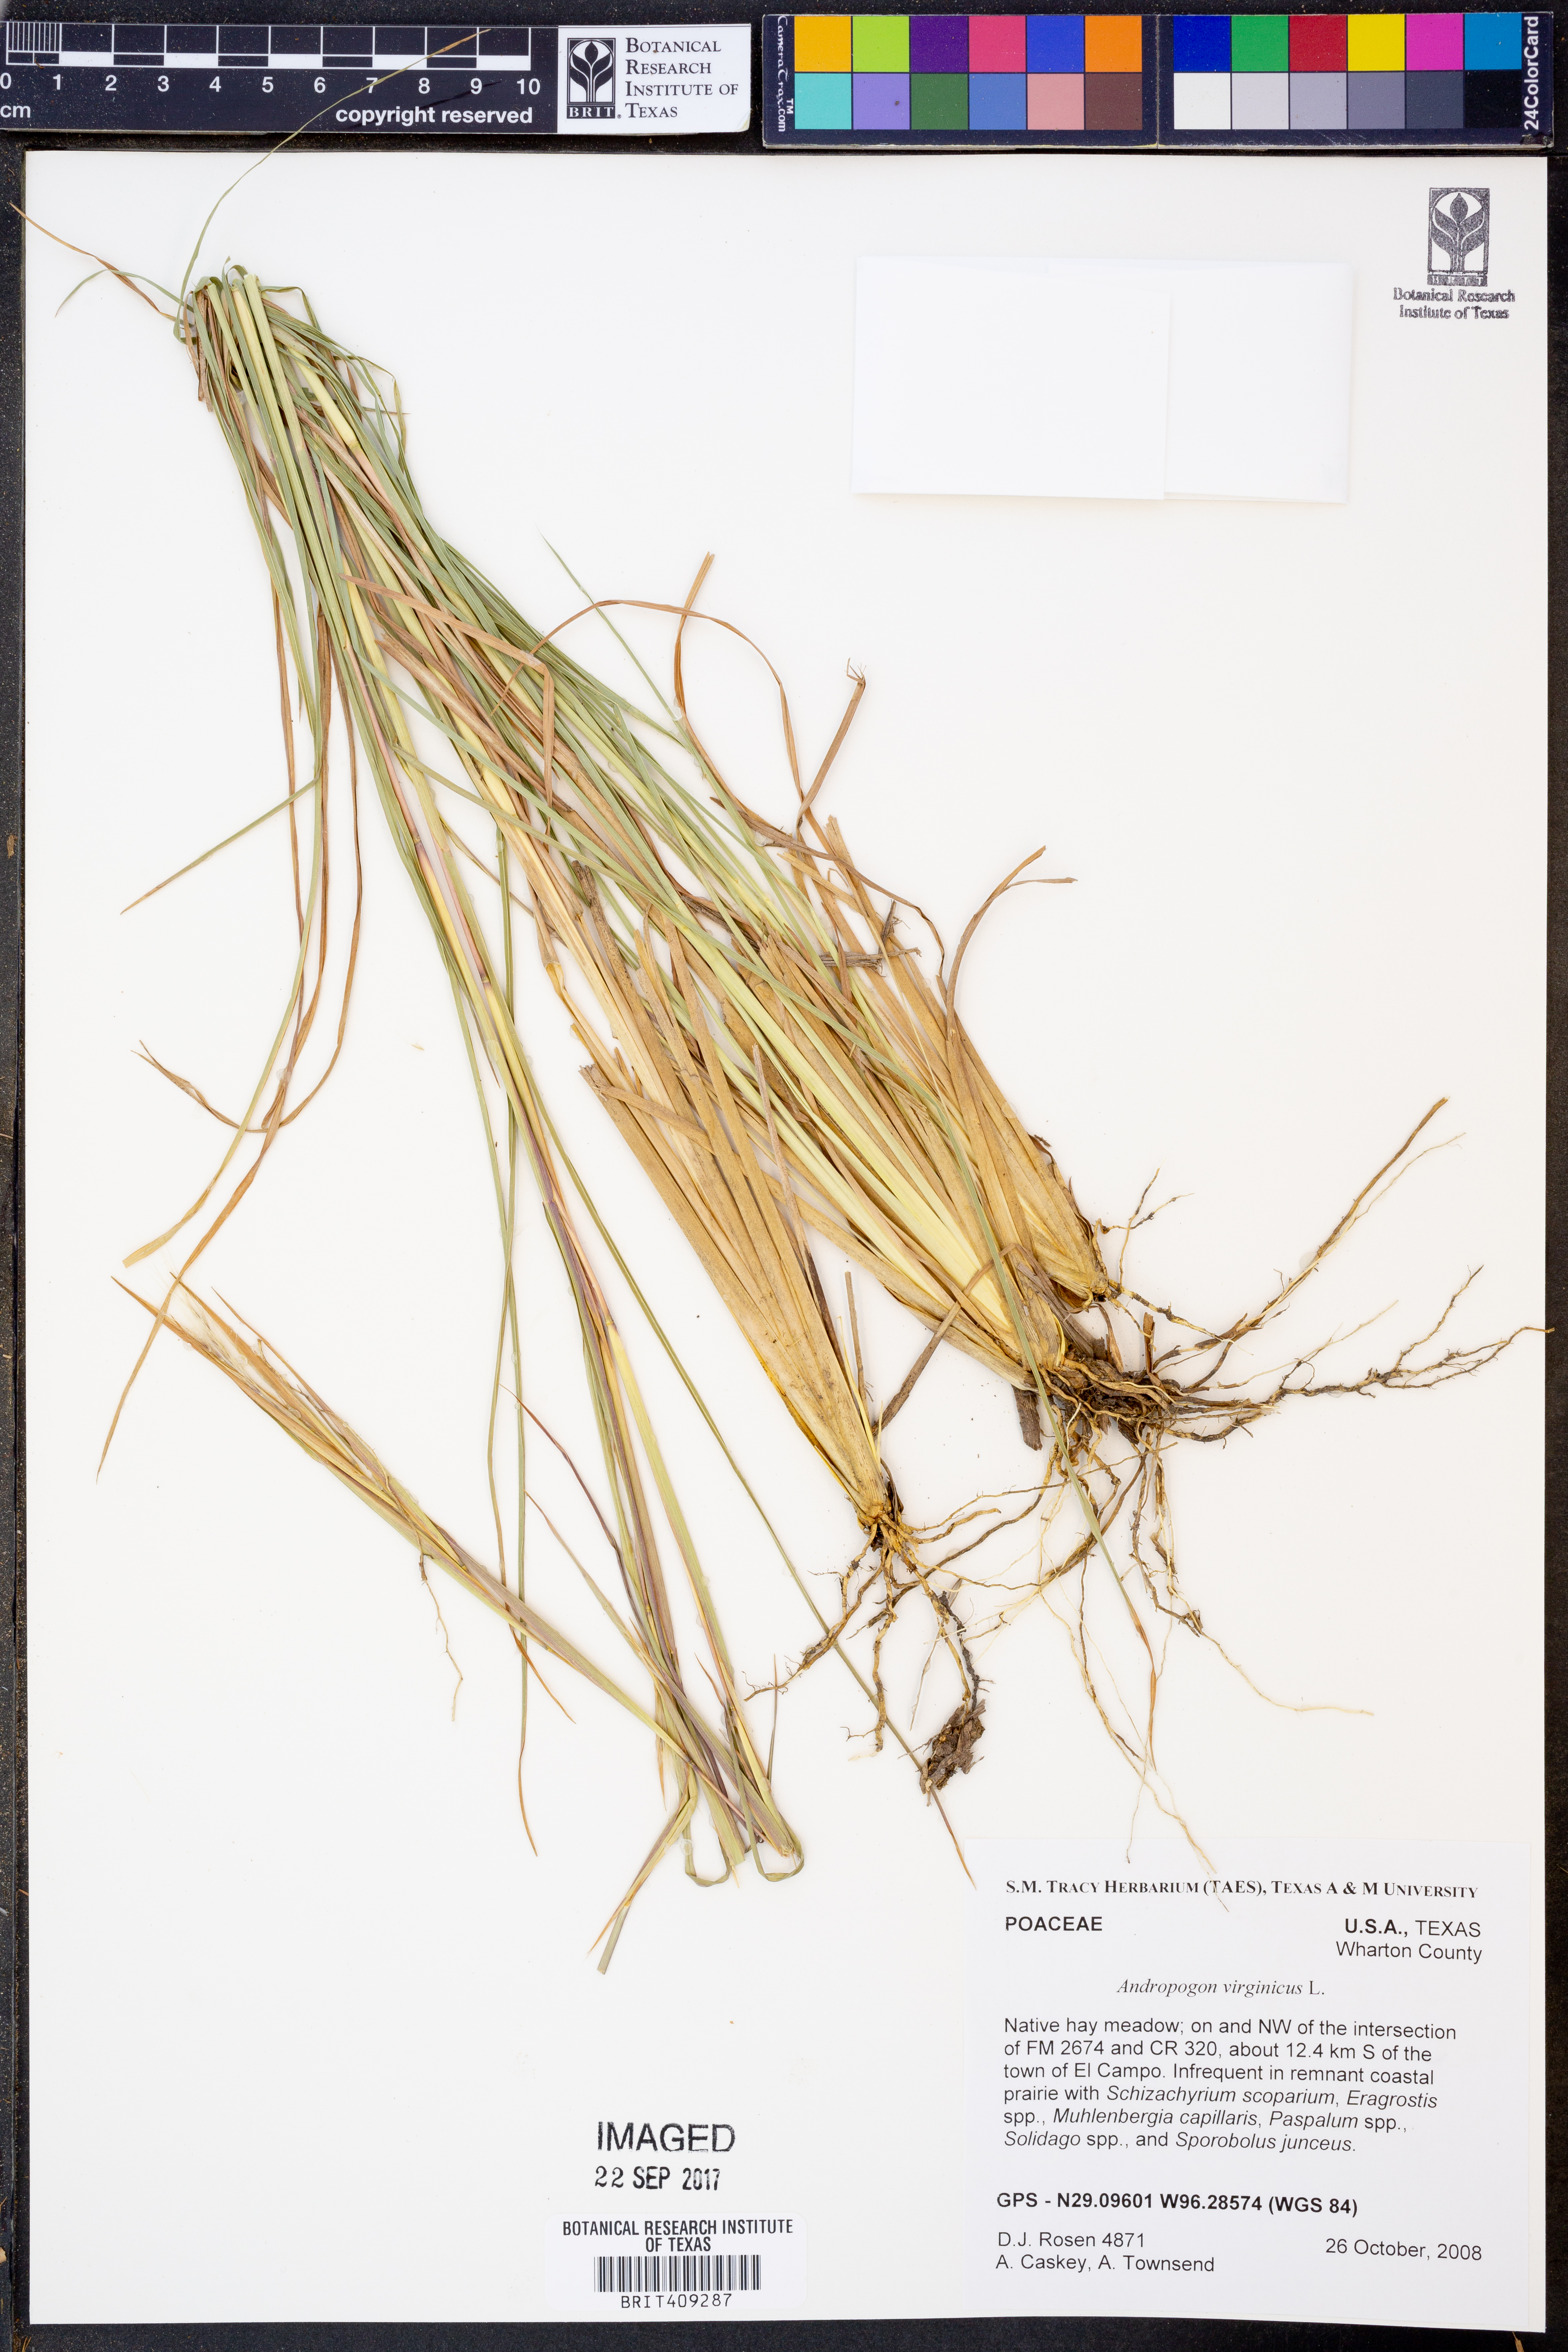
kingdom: Plantae
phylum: Tracheophyta
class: Liliopsida
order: Poales
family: Poaceae
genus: Andropogon
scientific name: Andropogon virginicus
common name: Broomsedge bluestem
